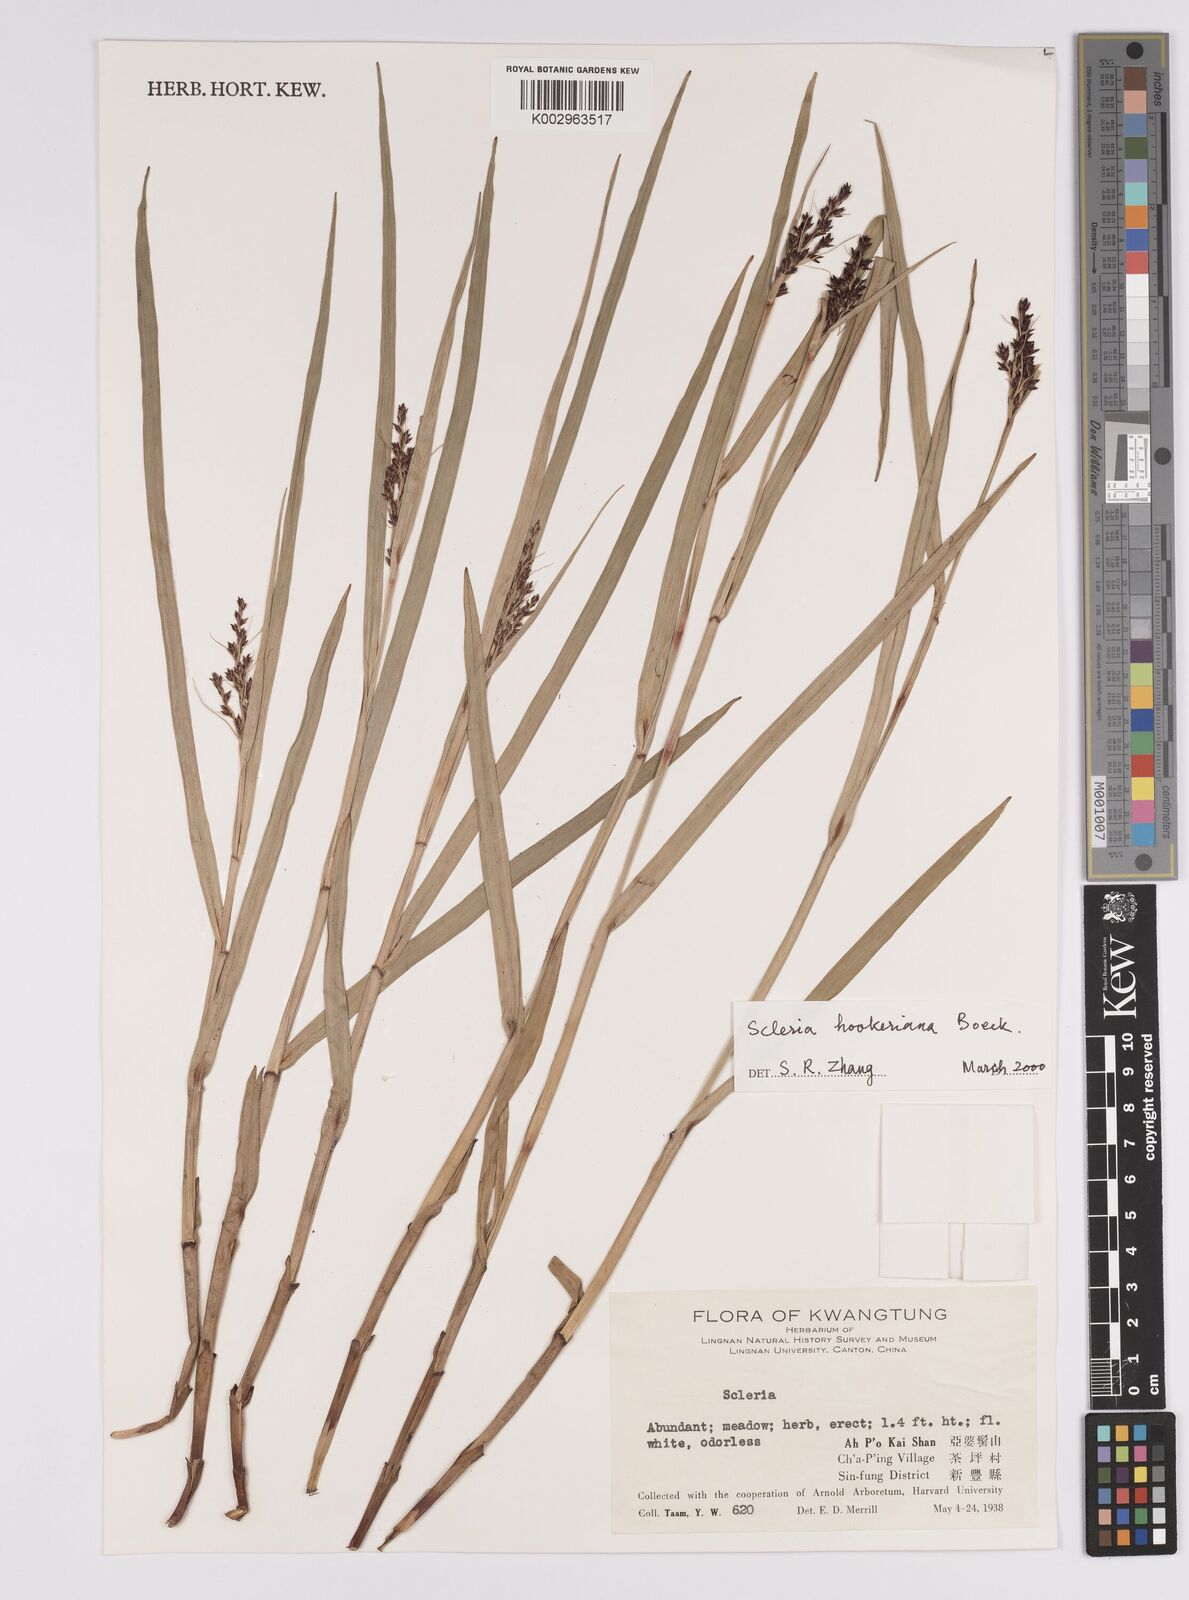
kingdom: Plantae
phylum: Tracheophyta
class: Liliopsida
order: Poales
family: Cyperaceae
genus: Scleria
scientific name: Scleria terrestris
